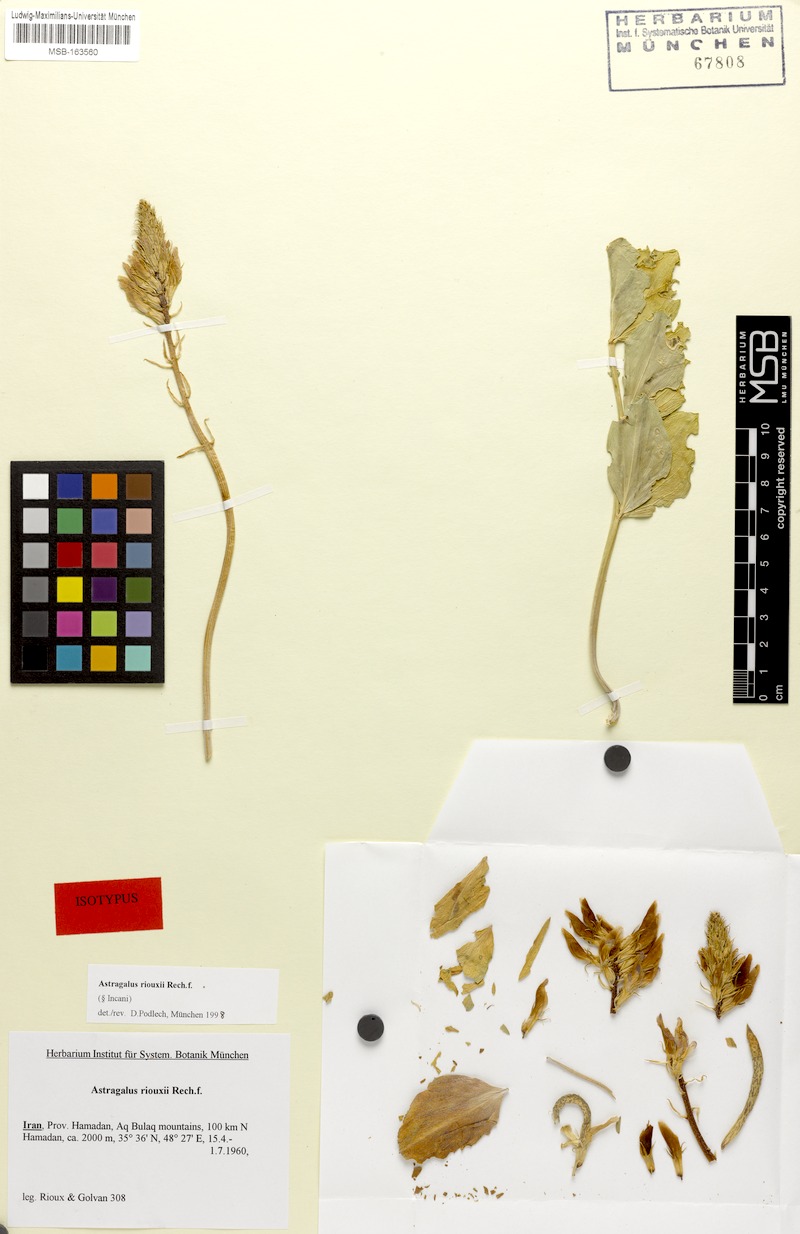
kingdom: Plantae
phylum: Tracheophyta
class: Magnoliopsida
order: Fabales
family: Fabaceae
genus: Astragalus
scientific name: Astragalus riouxii
